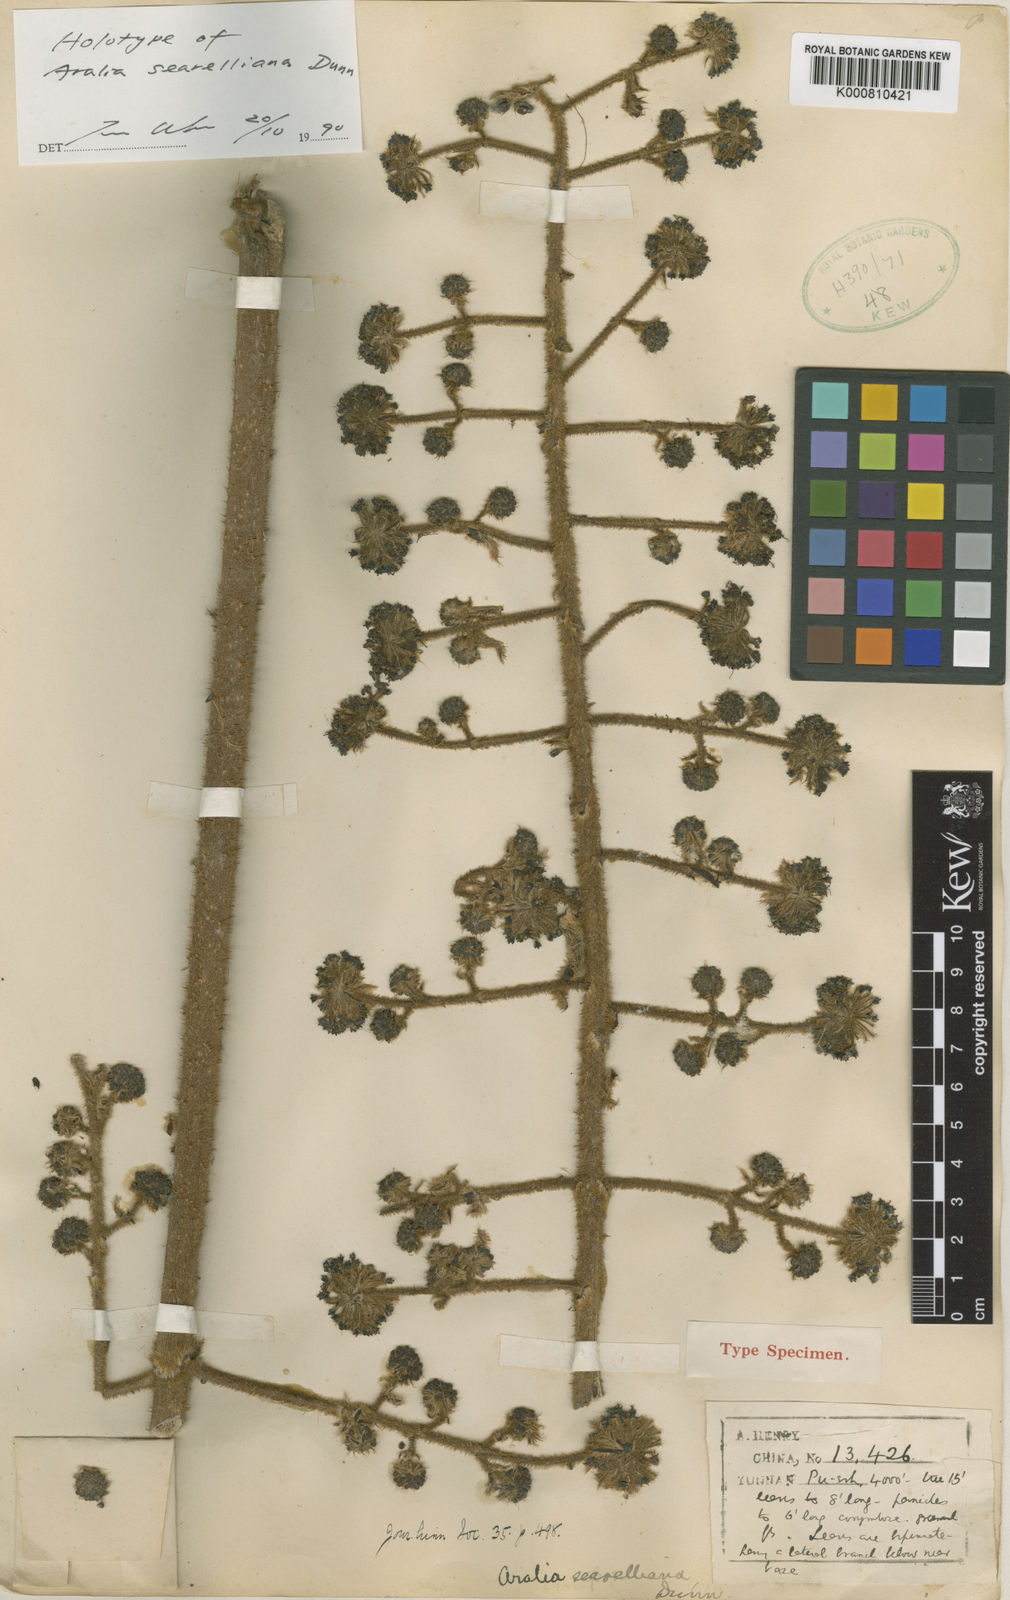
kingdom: Plantae
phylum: Tracheophyta
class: Magnoliopsida
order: Apiales
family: Araliaceae
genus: Aralia
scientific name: Aralia searelliana
